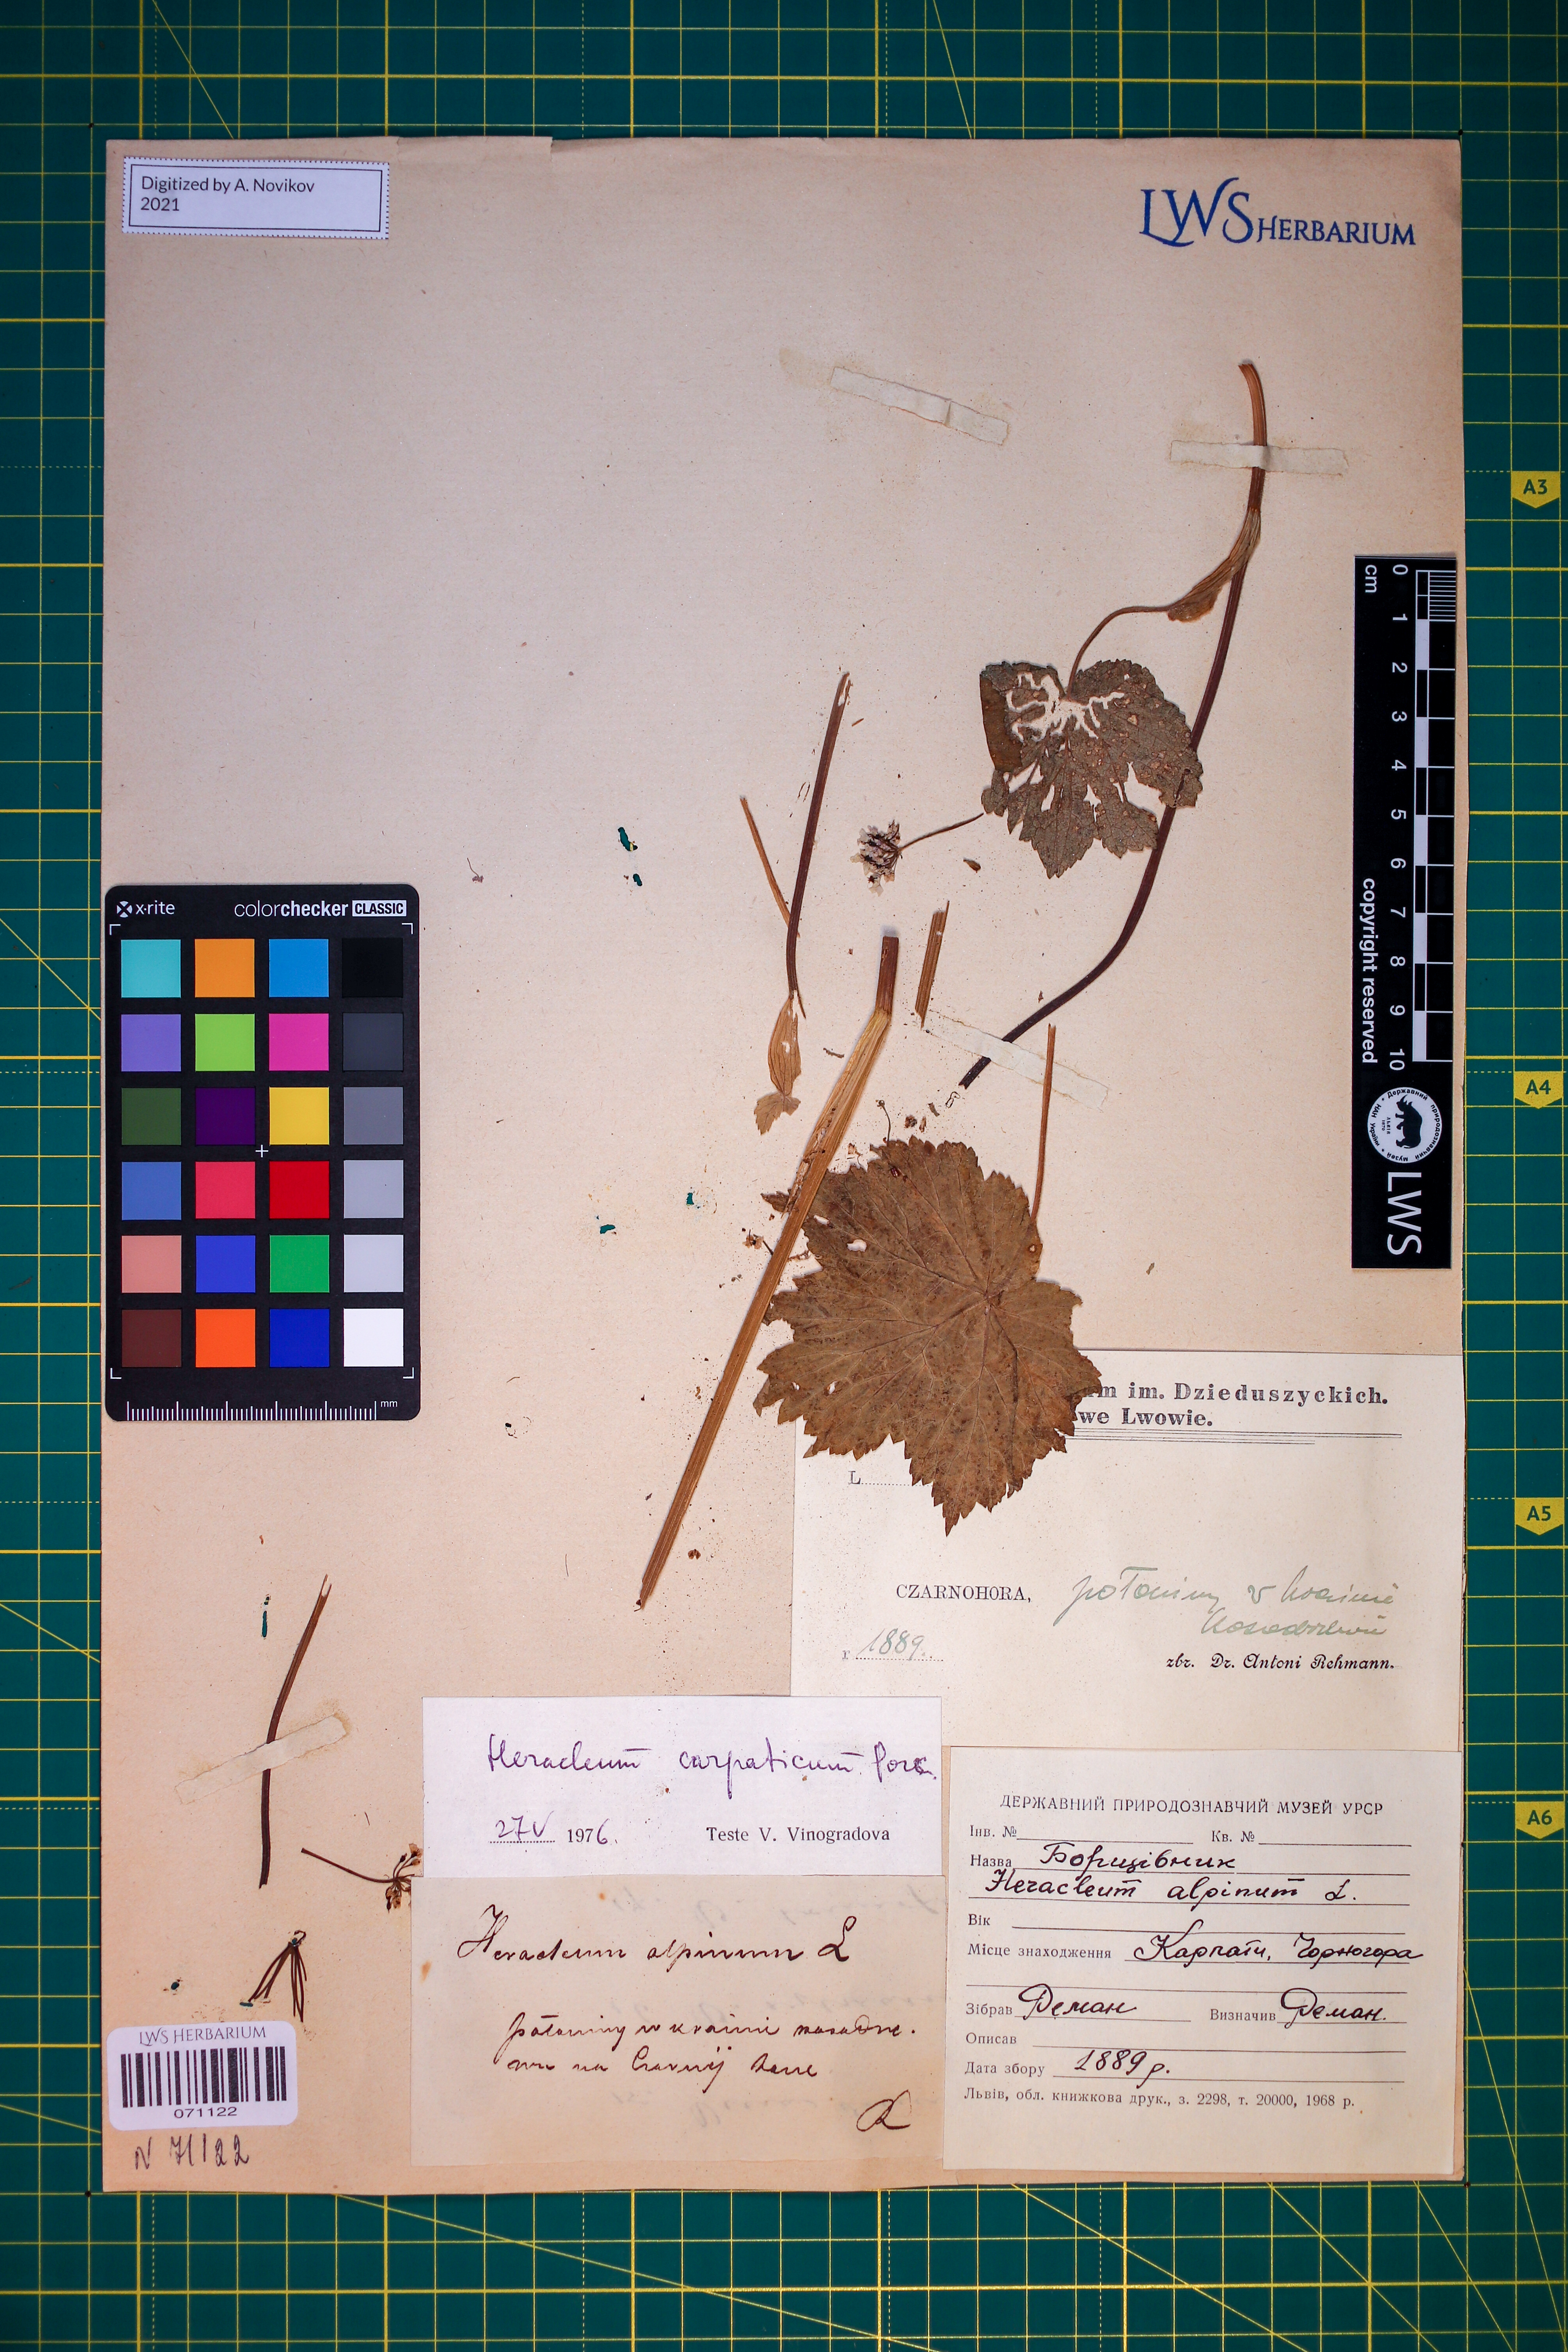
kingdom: Plantae
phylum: Tracheophyta
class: Magnoliopsida
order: Apiales
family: Apiaceae
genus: Heracleum
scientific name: Heracleum carpaticum
